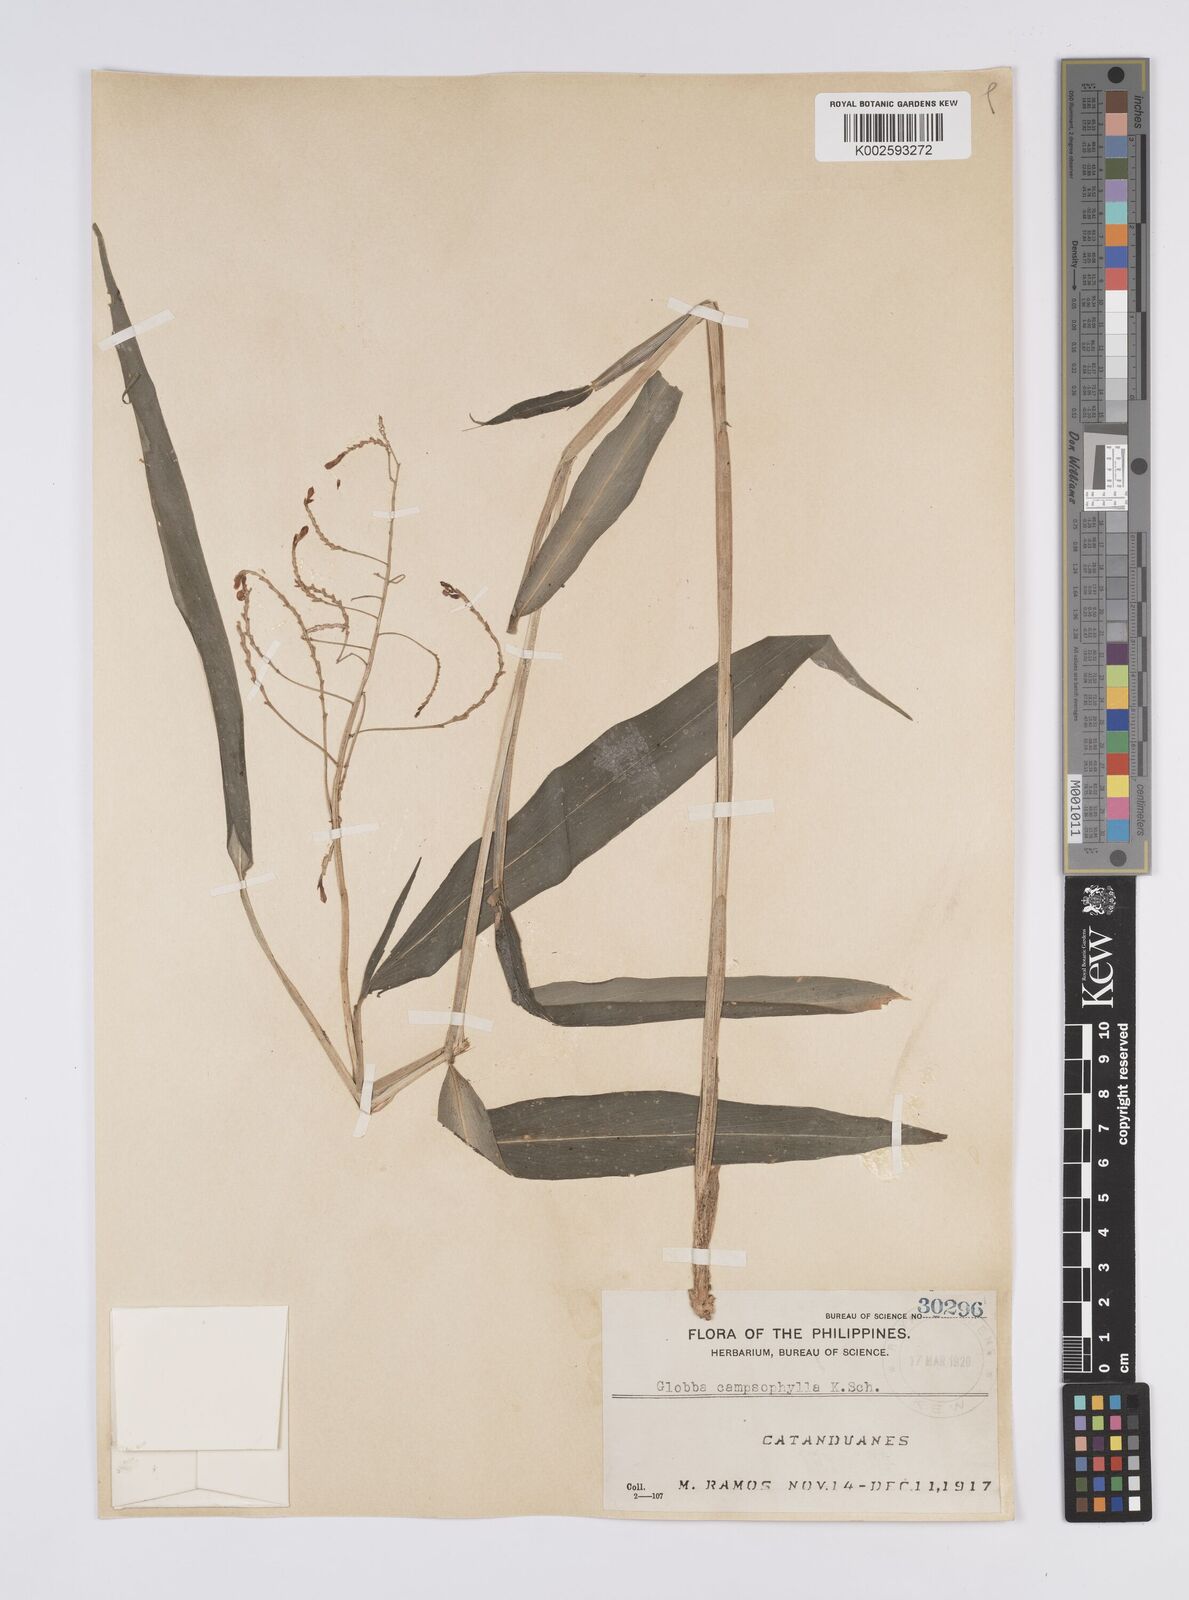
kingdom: Plantae
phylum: Tracheophyta
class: Liliopsida
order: Zingiberales
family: Zingiberaceae
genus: Globba
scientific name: Globba campsophylla
